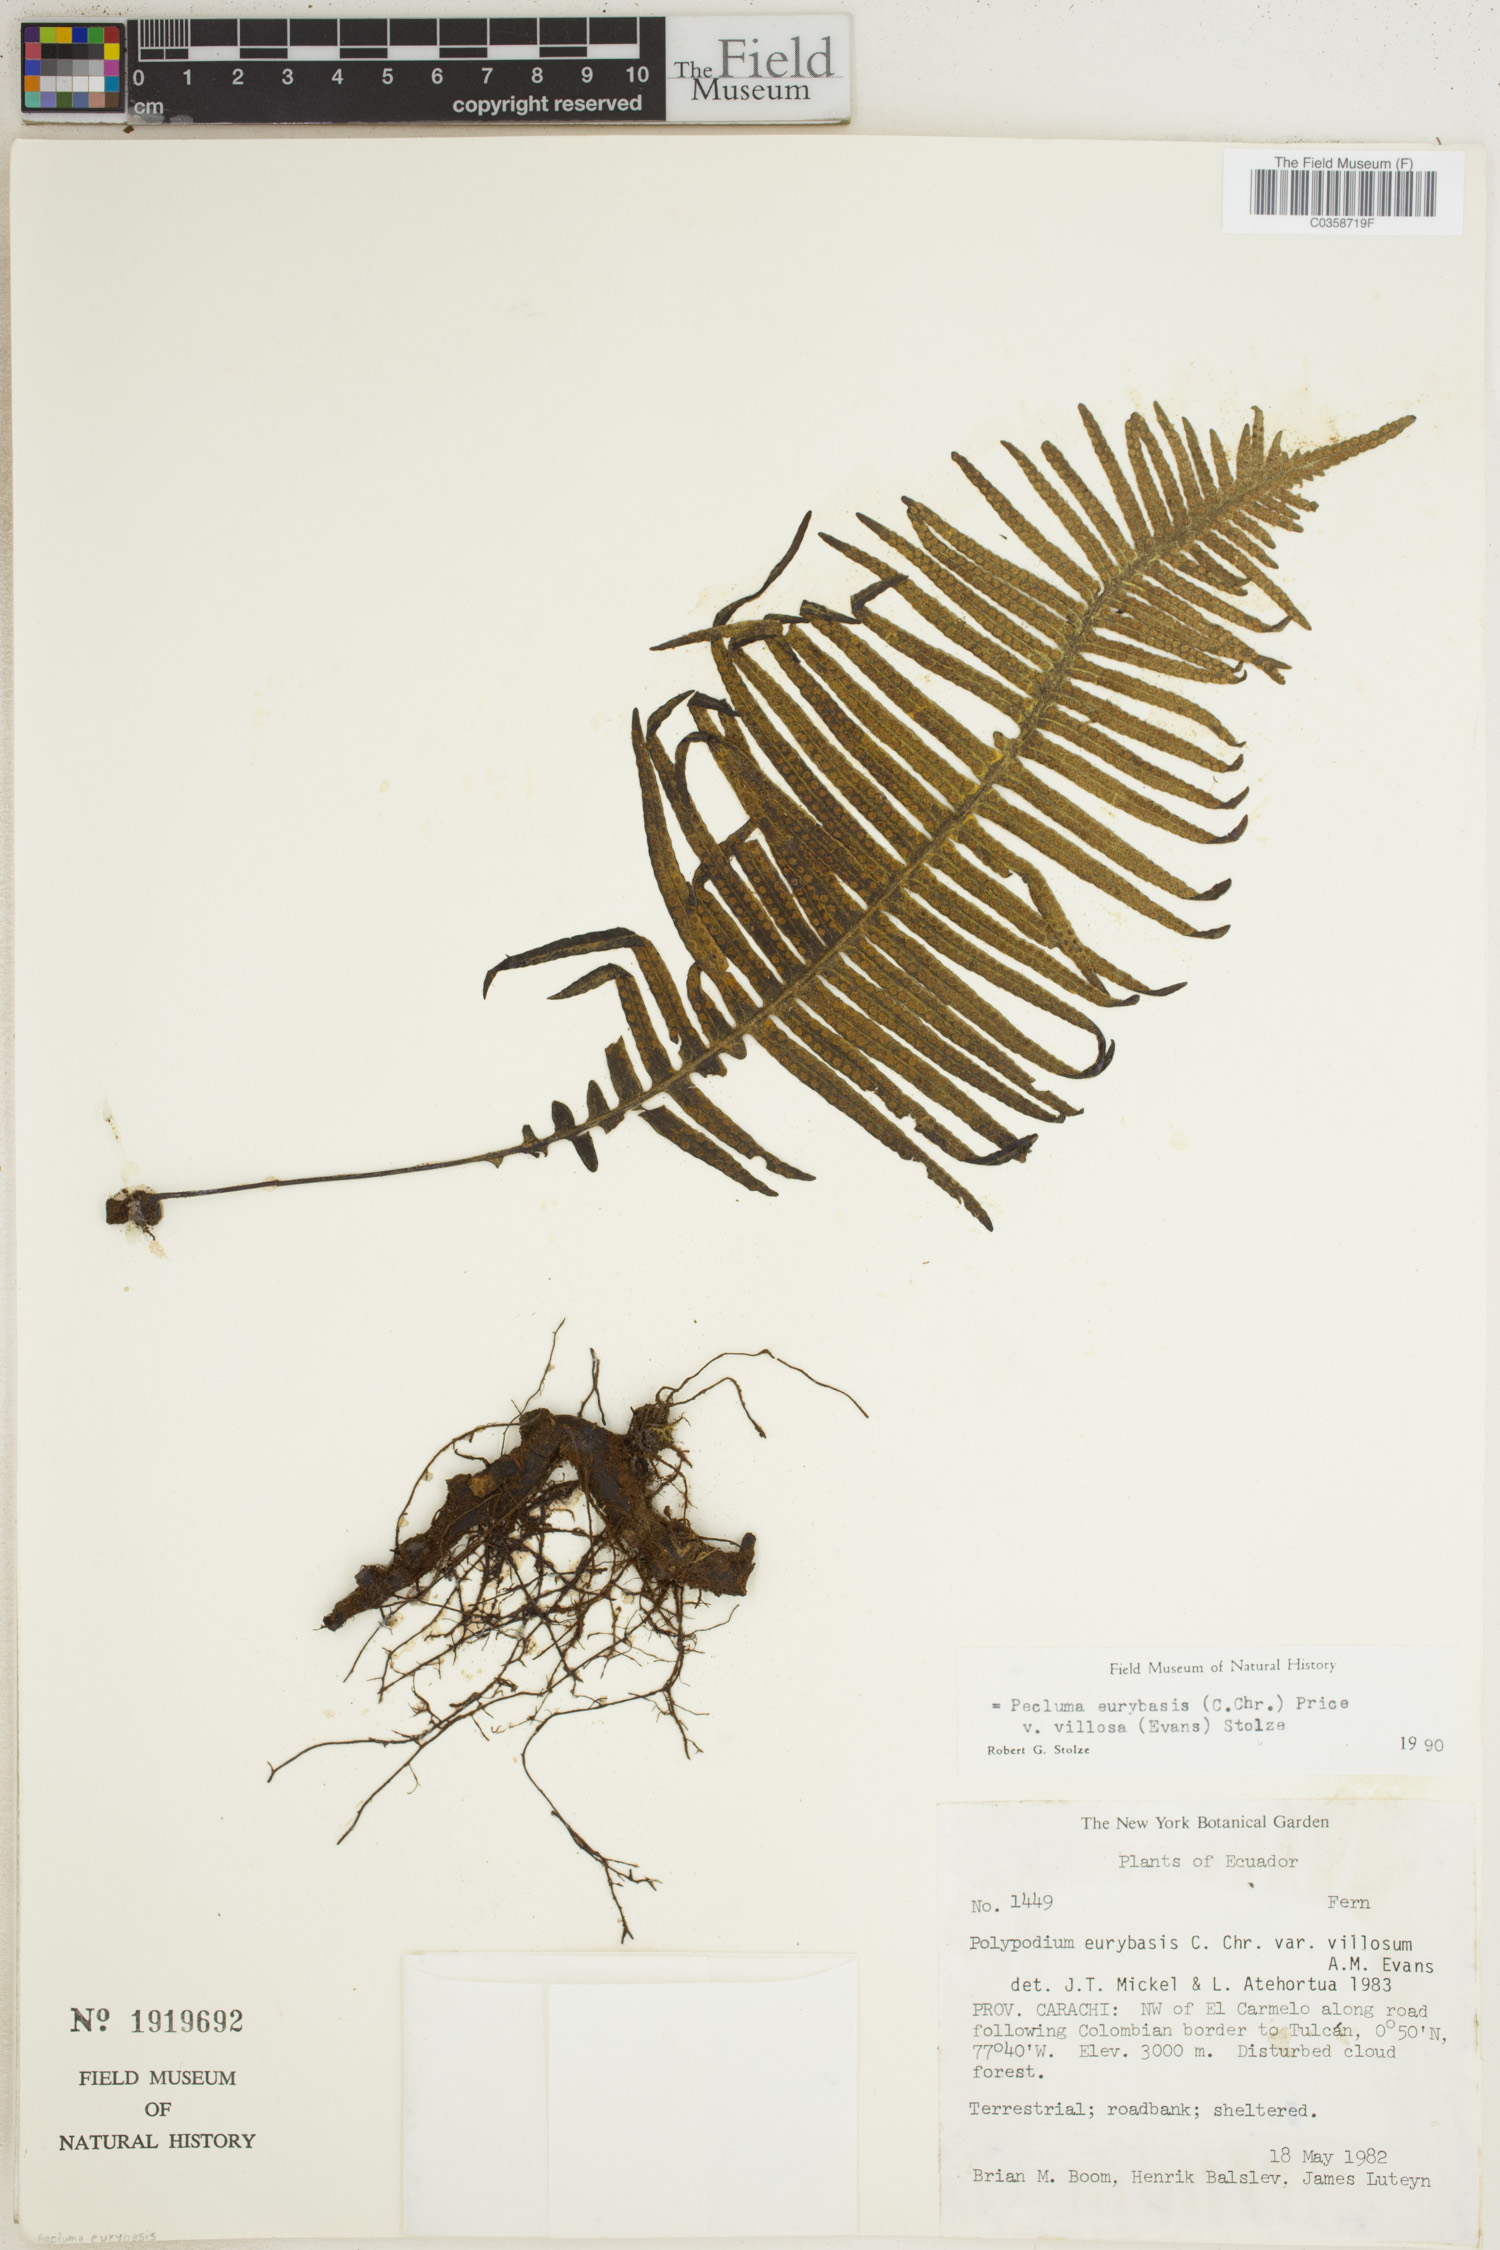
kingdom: Plantae
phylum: Tracheophyta
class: Polypodiopsida
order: Polypodiales
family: Polypodiaceae
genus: Pecluma
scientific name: Pecluma eurybasis
